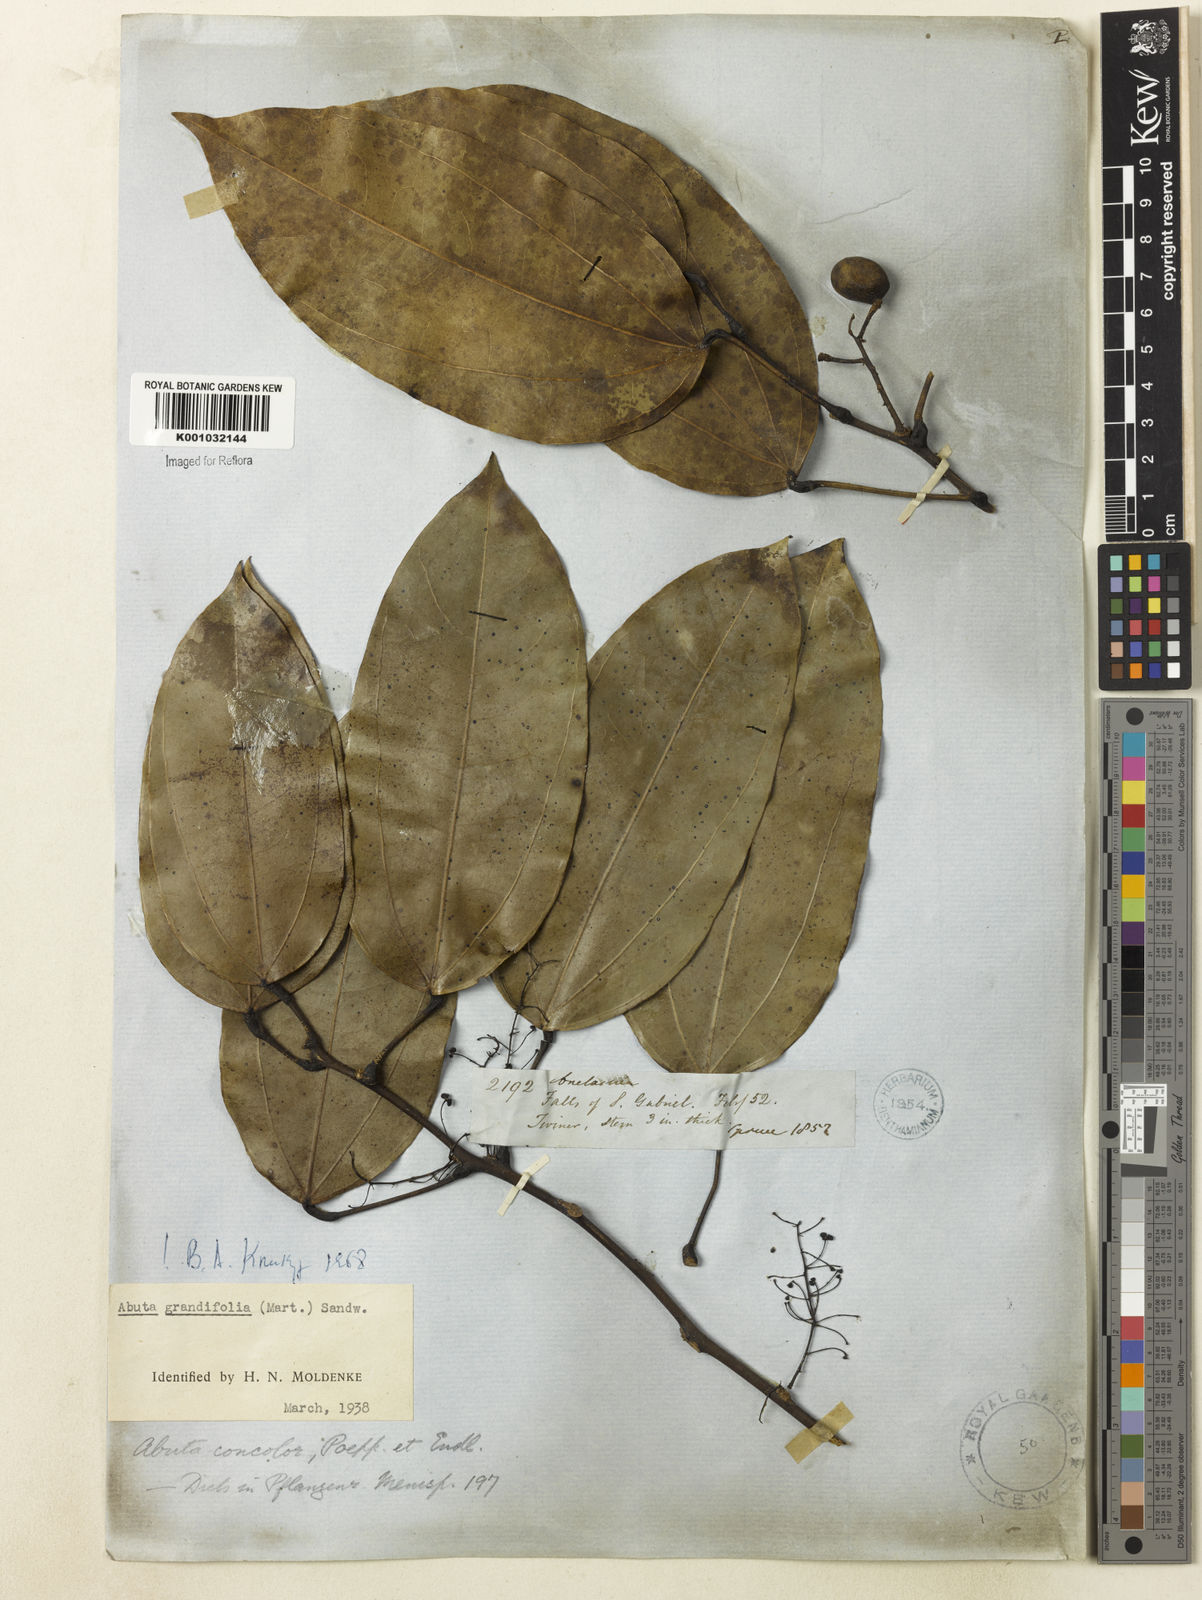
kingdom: Plantae
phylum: Tracheophyta
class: Magnoliopsida
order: Ranunculales
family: Menispermaceae
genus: Abuta
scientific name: Abuta grandifolia
